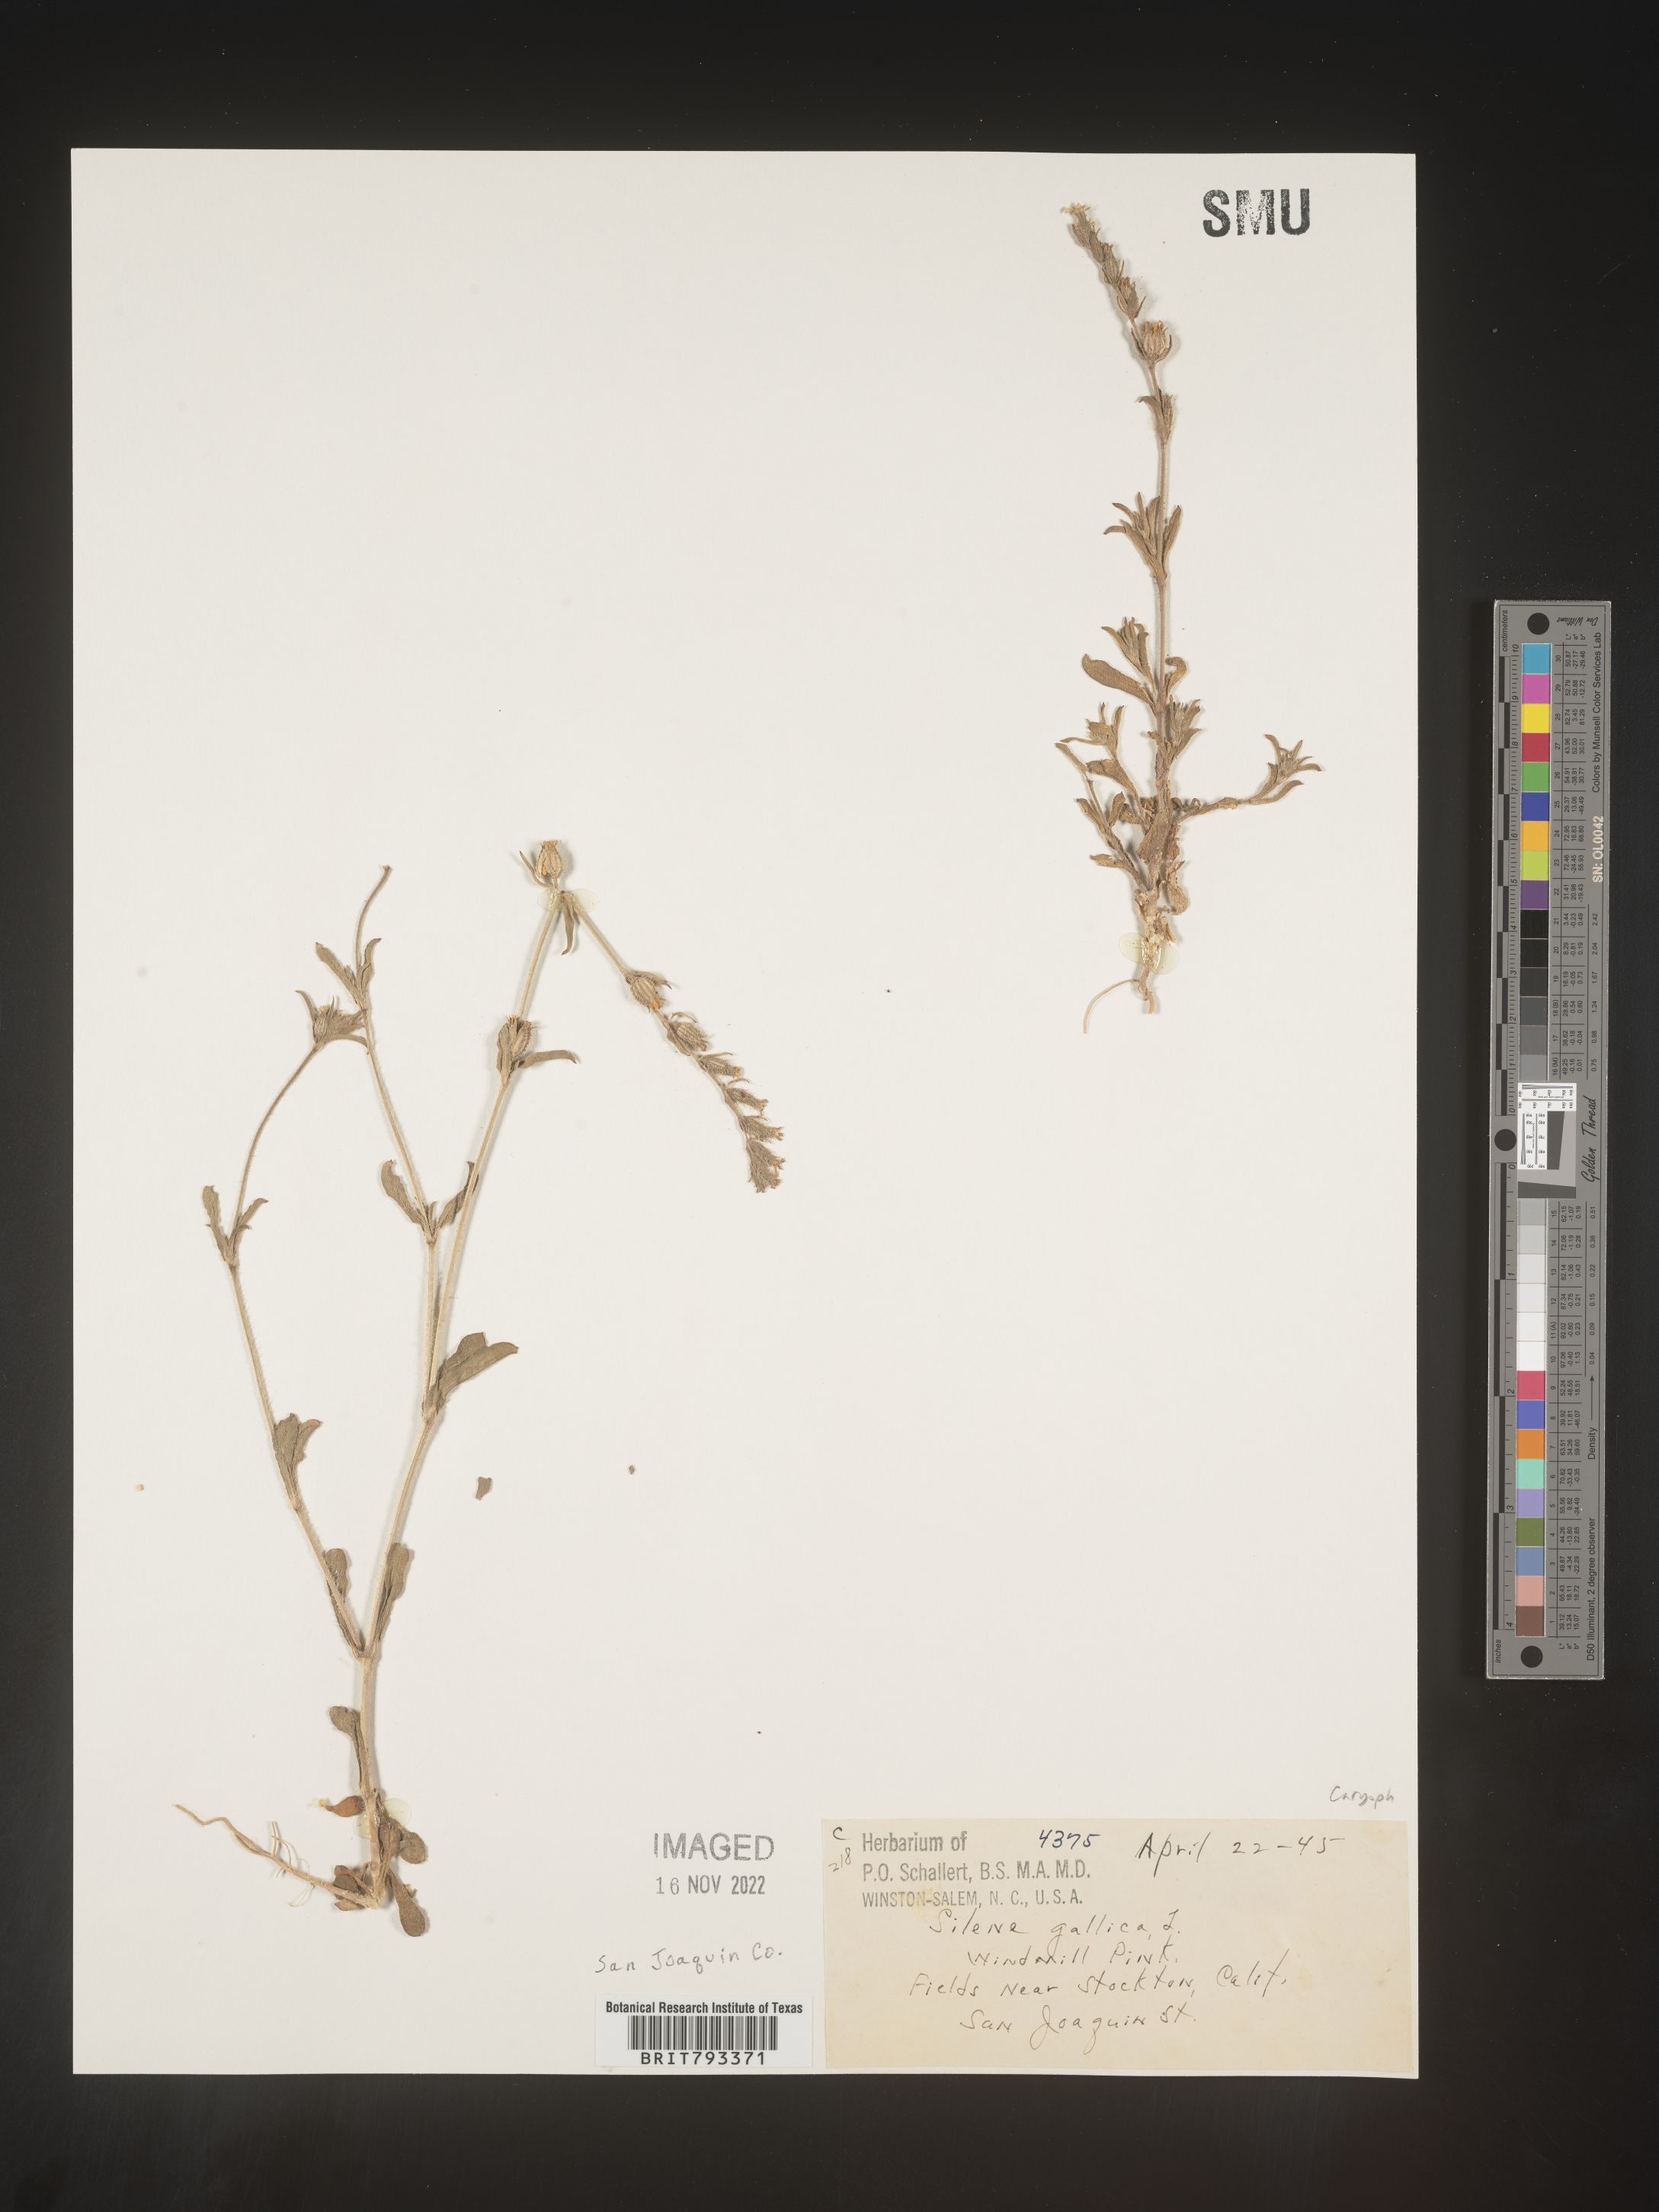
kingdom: Plantae
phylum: Tracheophyta
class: Magnoliopsida
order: Caryophyllales
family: Caryophyllaceae
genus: Silene
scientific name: Silene gallica
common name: Small-flowered catchfly
